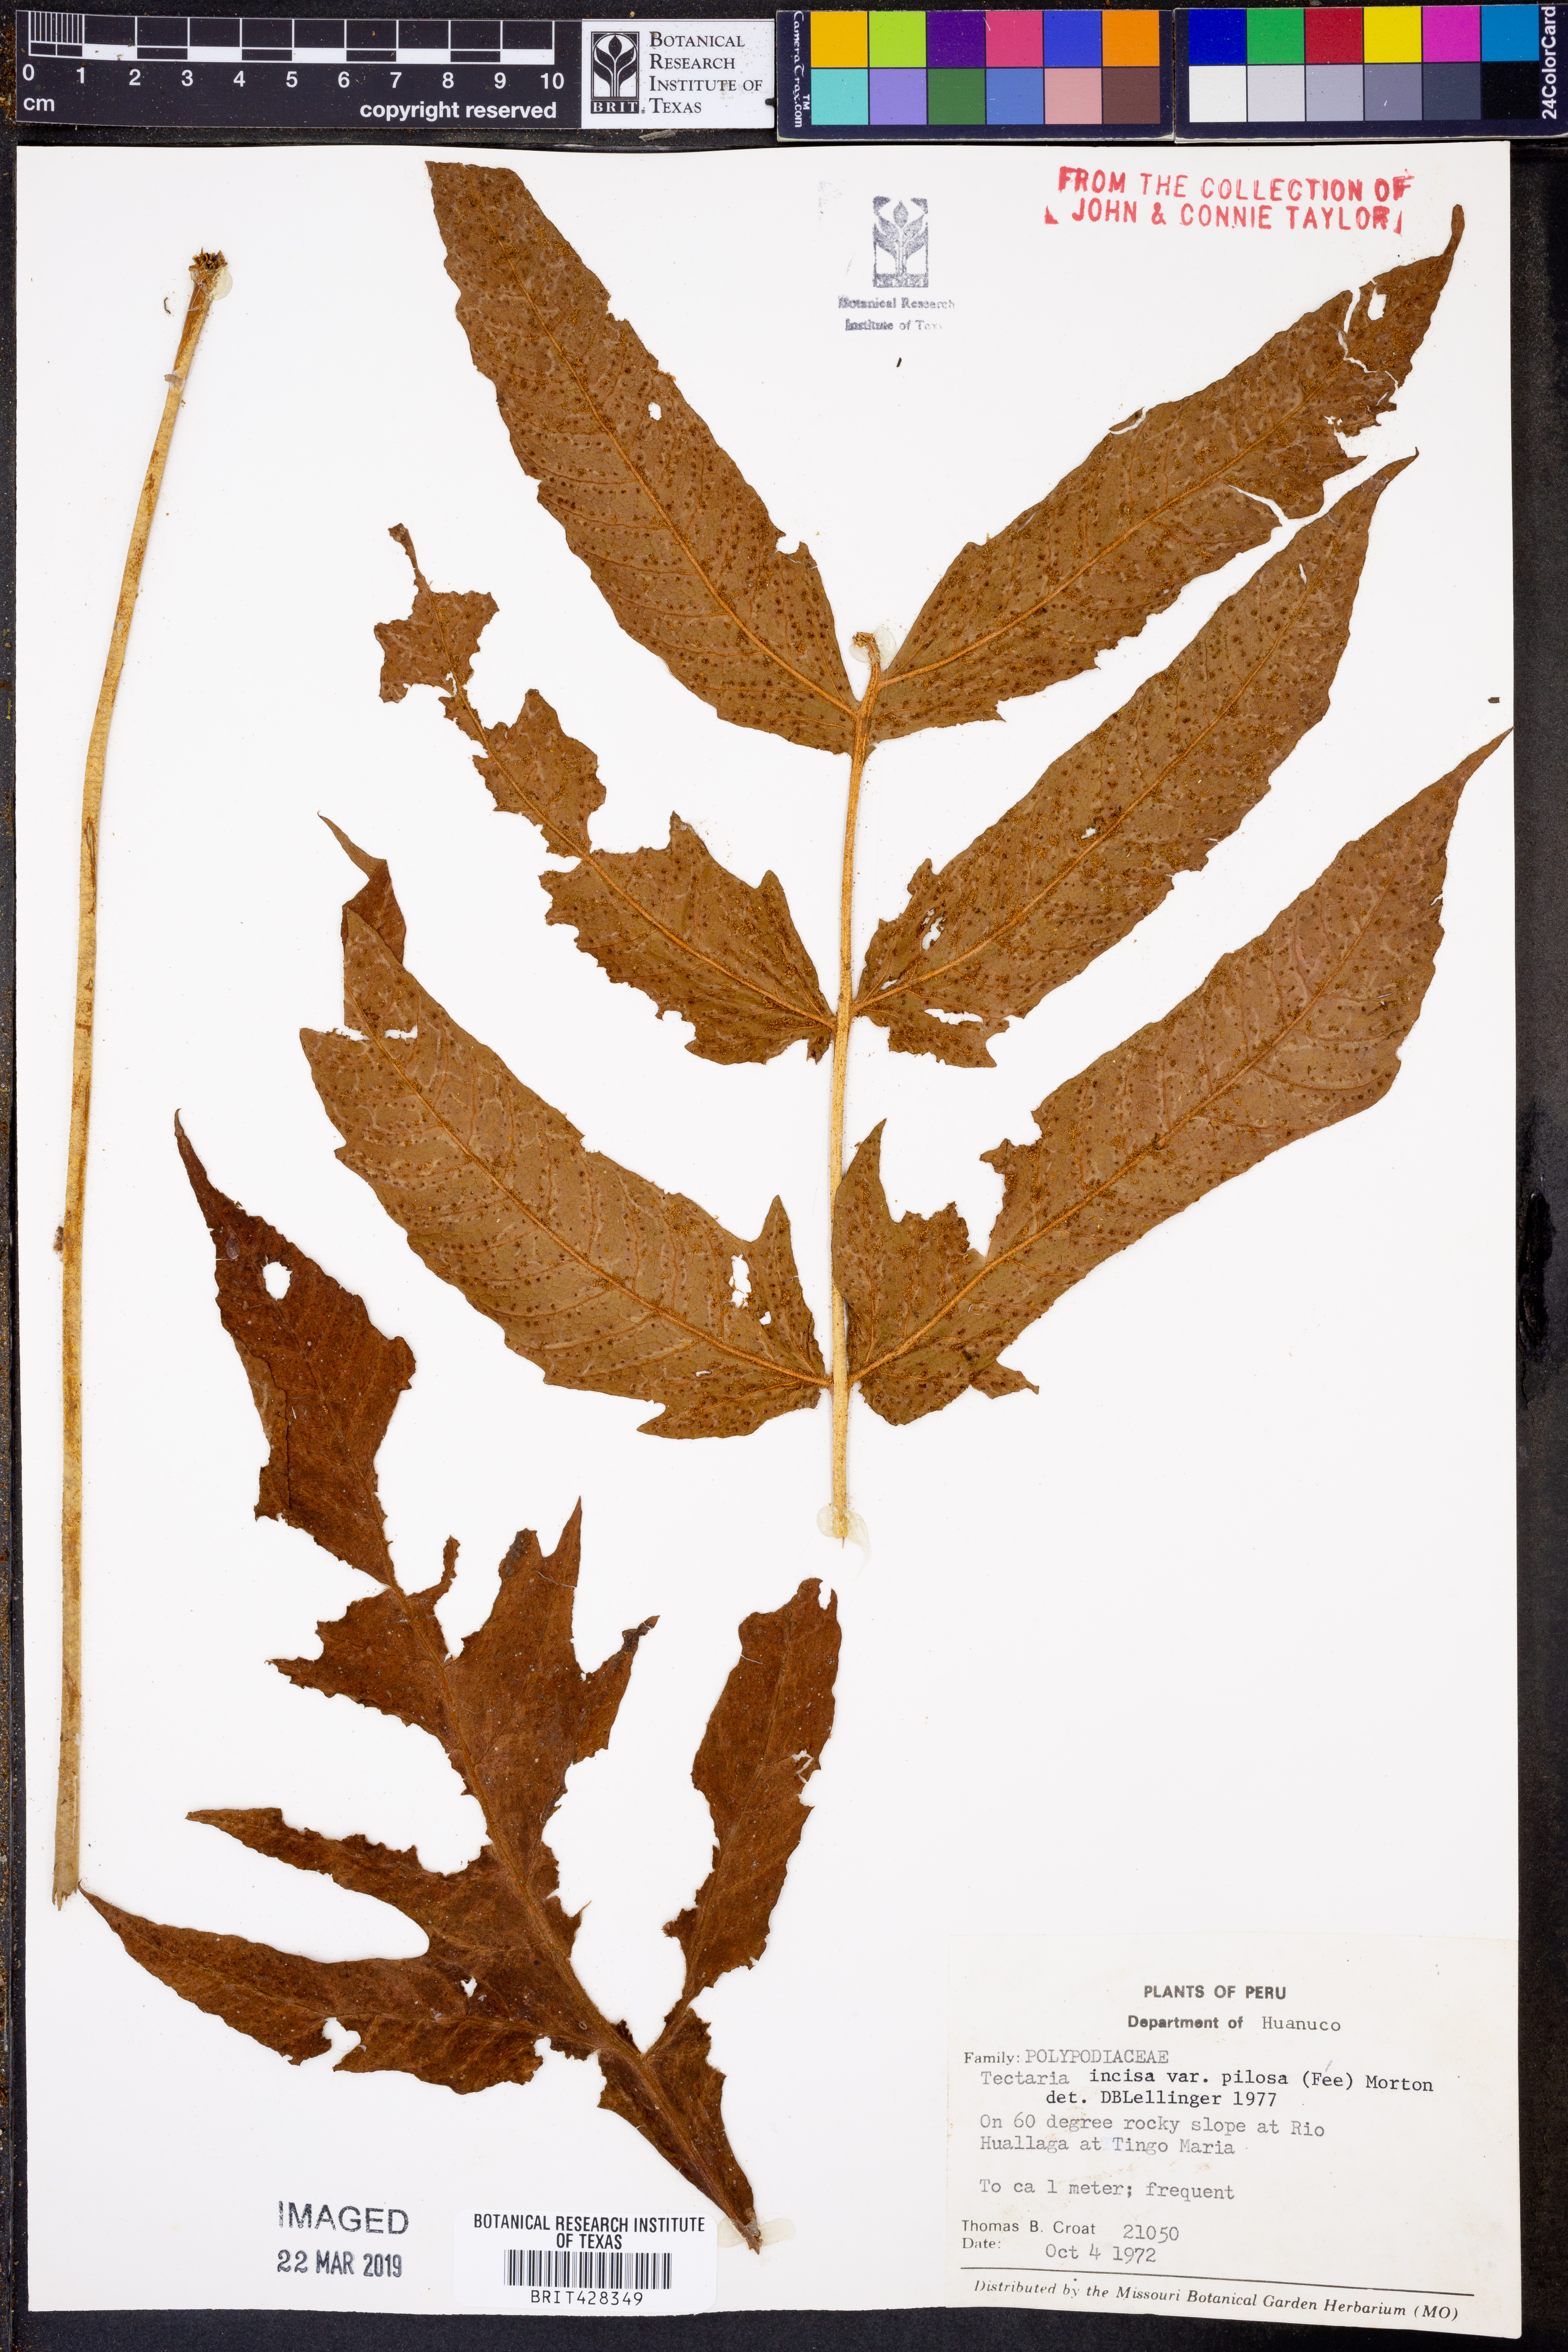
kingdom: Plantae
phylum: Tracheophyta
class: Polypodiopsida
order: Polypodiales
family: Tectariaceae
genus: Tectaria
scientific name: Tectaria pilosa
